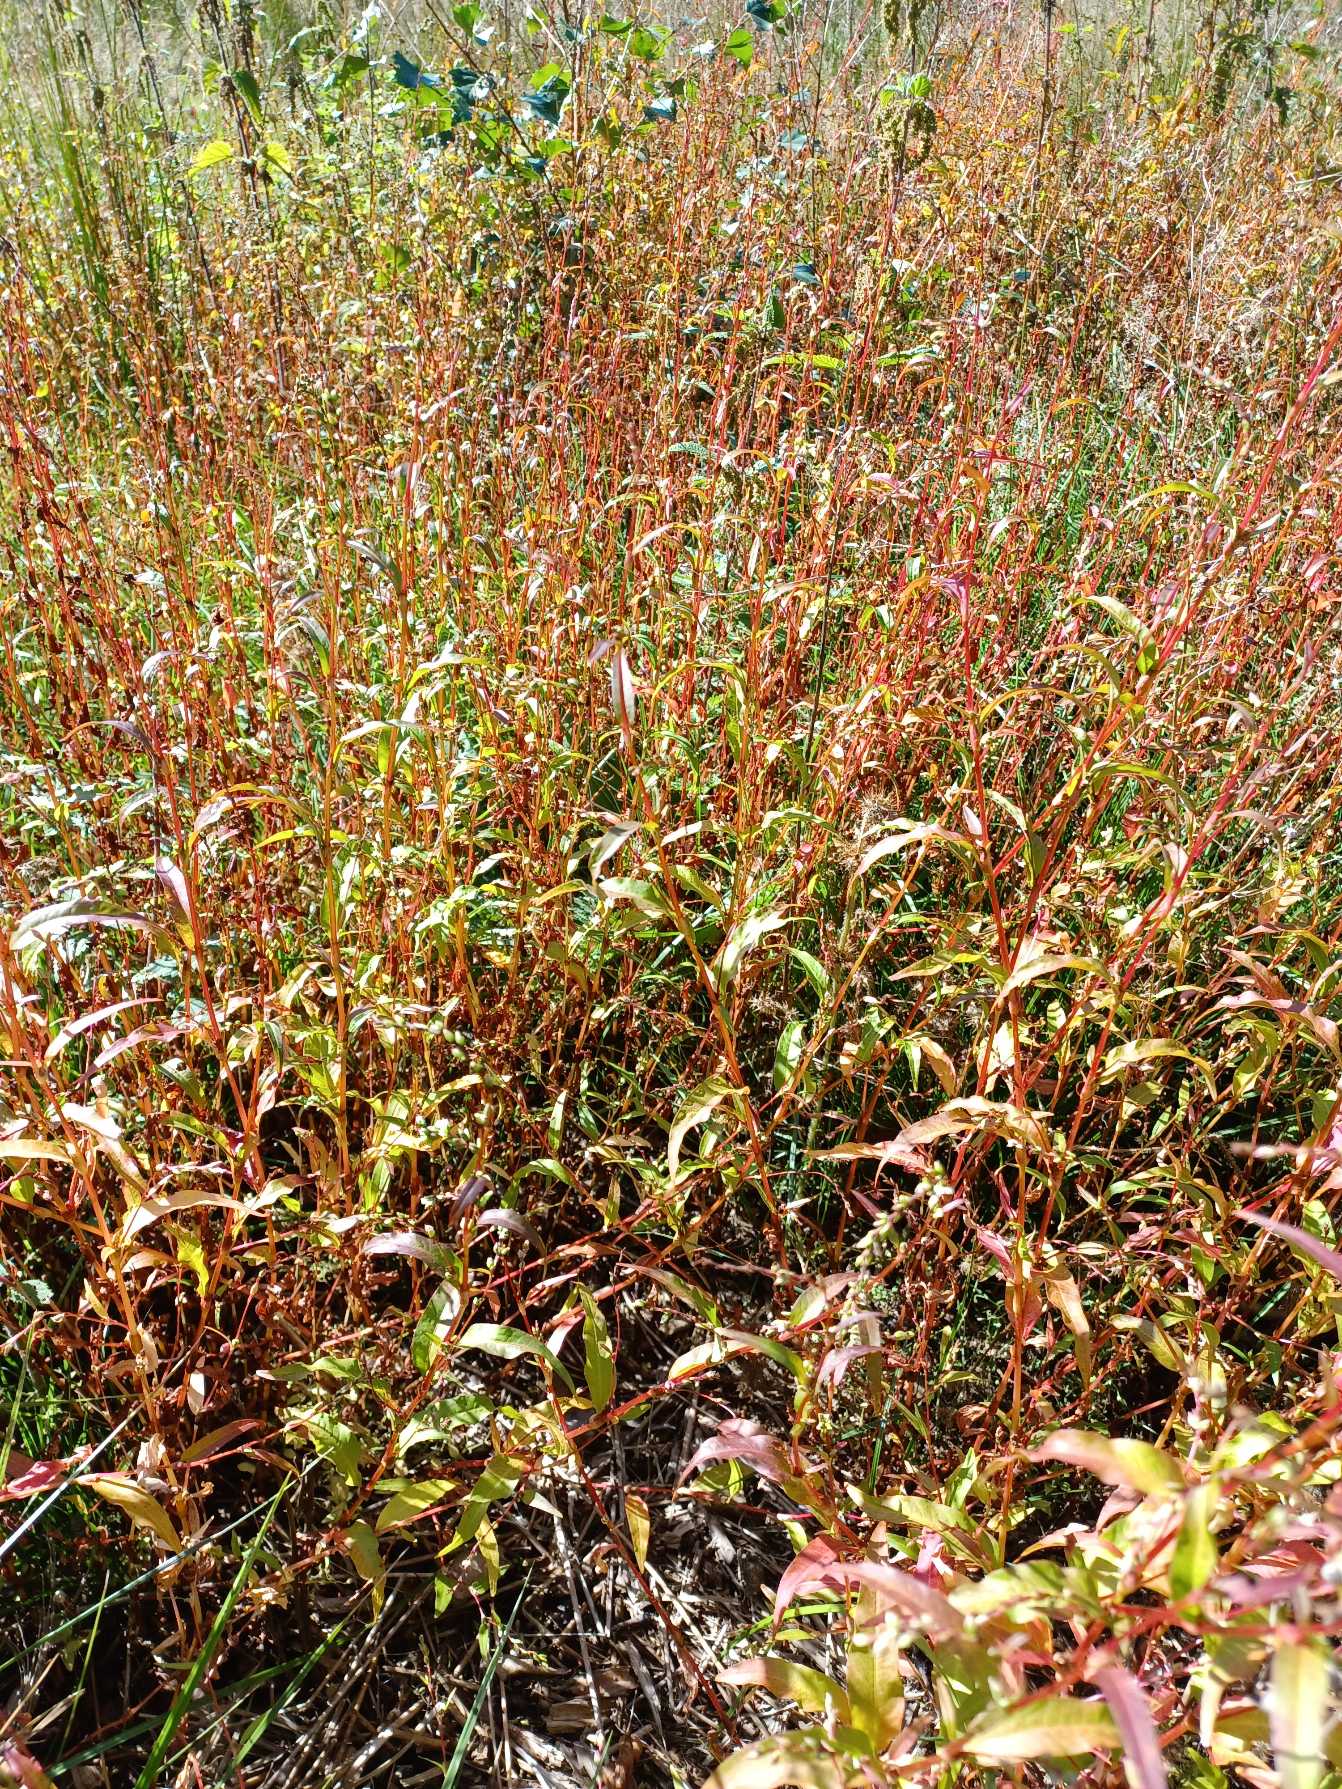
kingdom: Plantae
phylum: Tracheophyta
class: Magnoliopsida
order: Caryophyllales
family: Polygonaceae
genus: Persicaria
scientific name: Persicaria hydropiper
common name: Bidende pileurt
